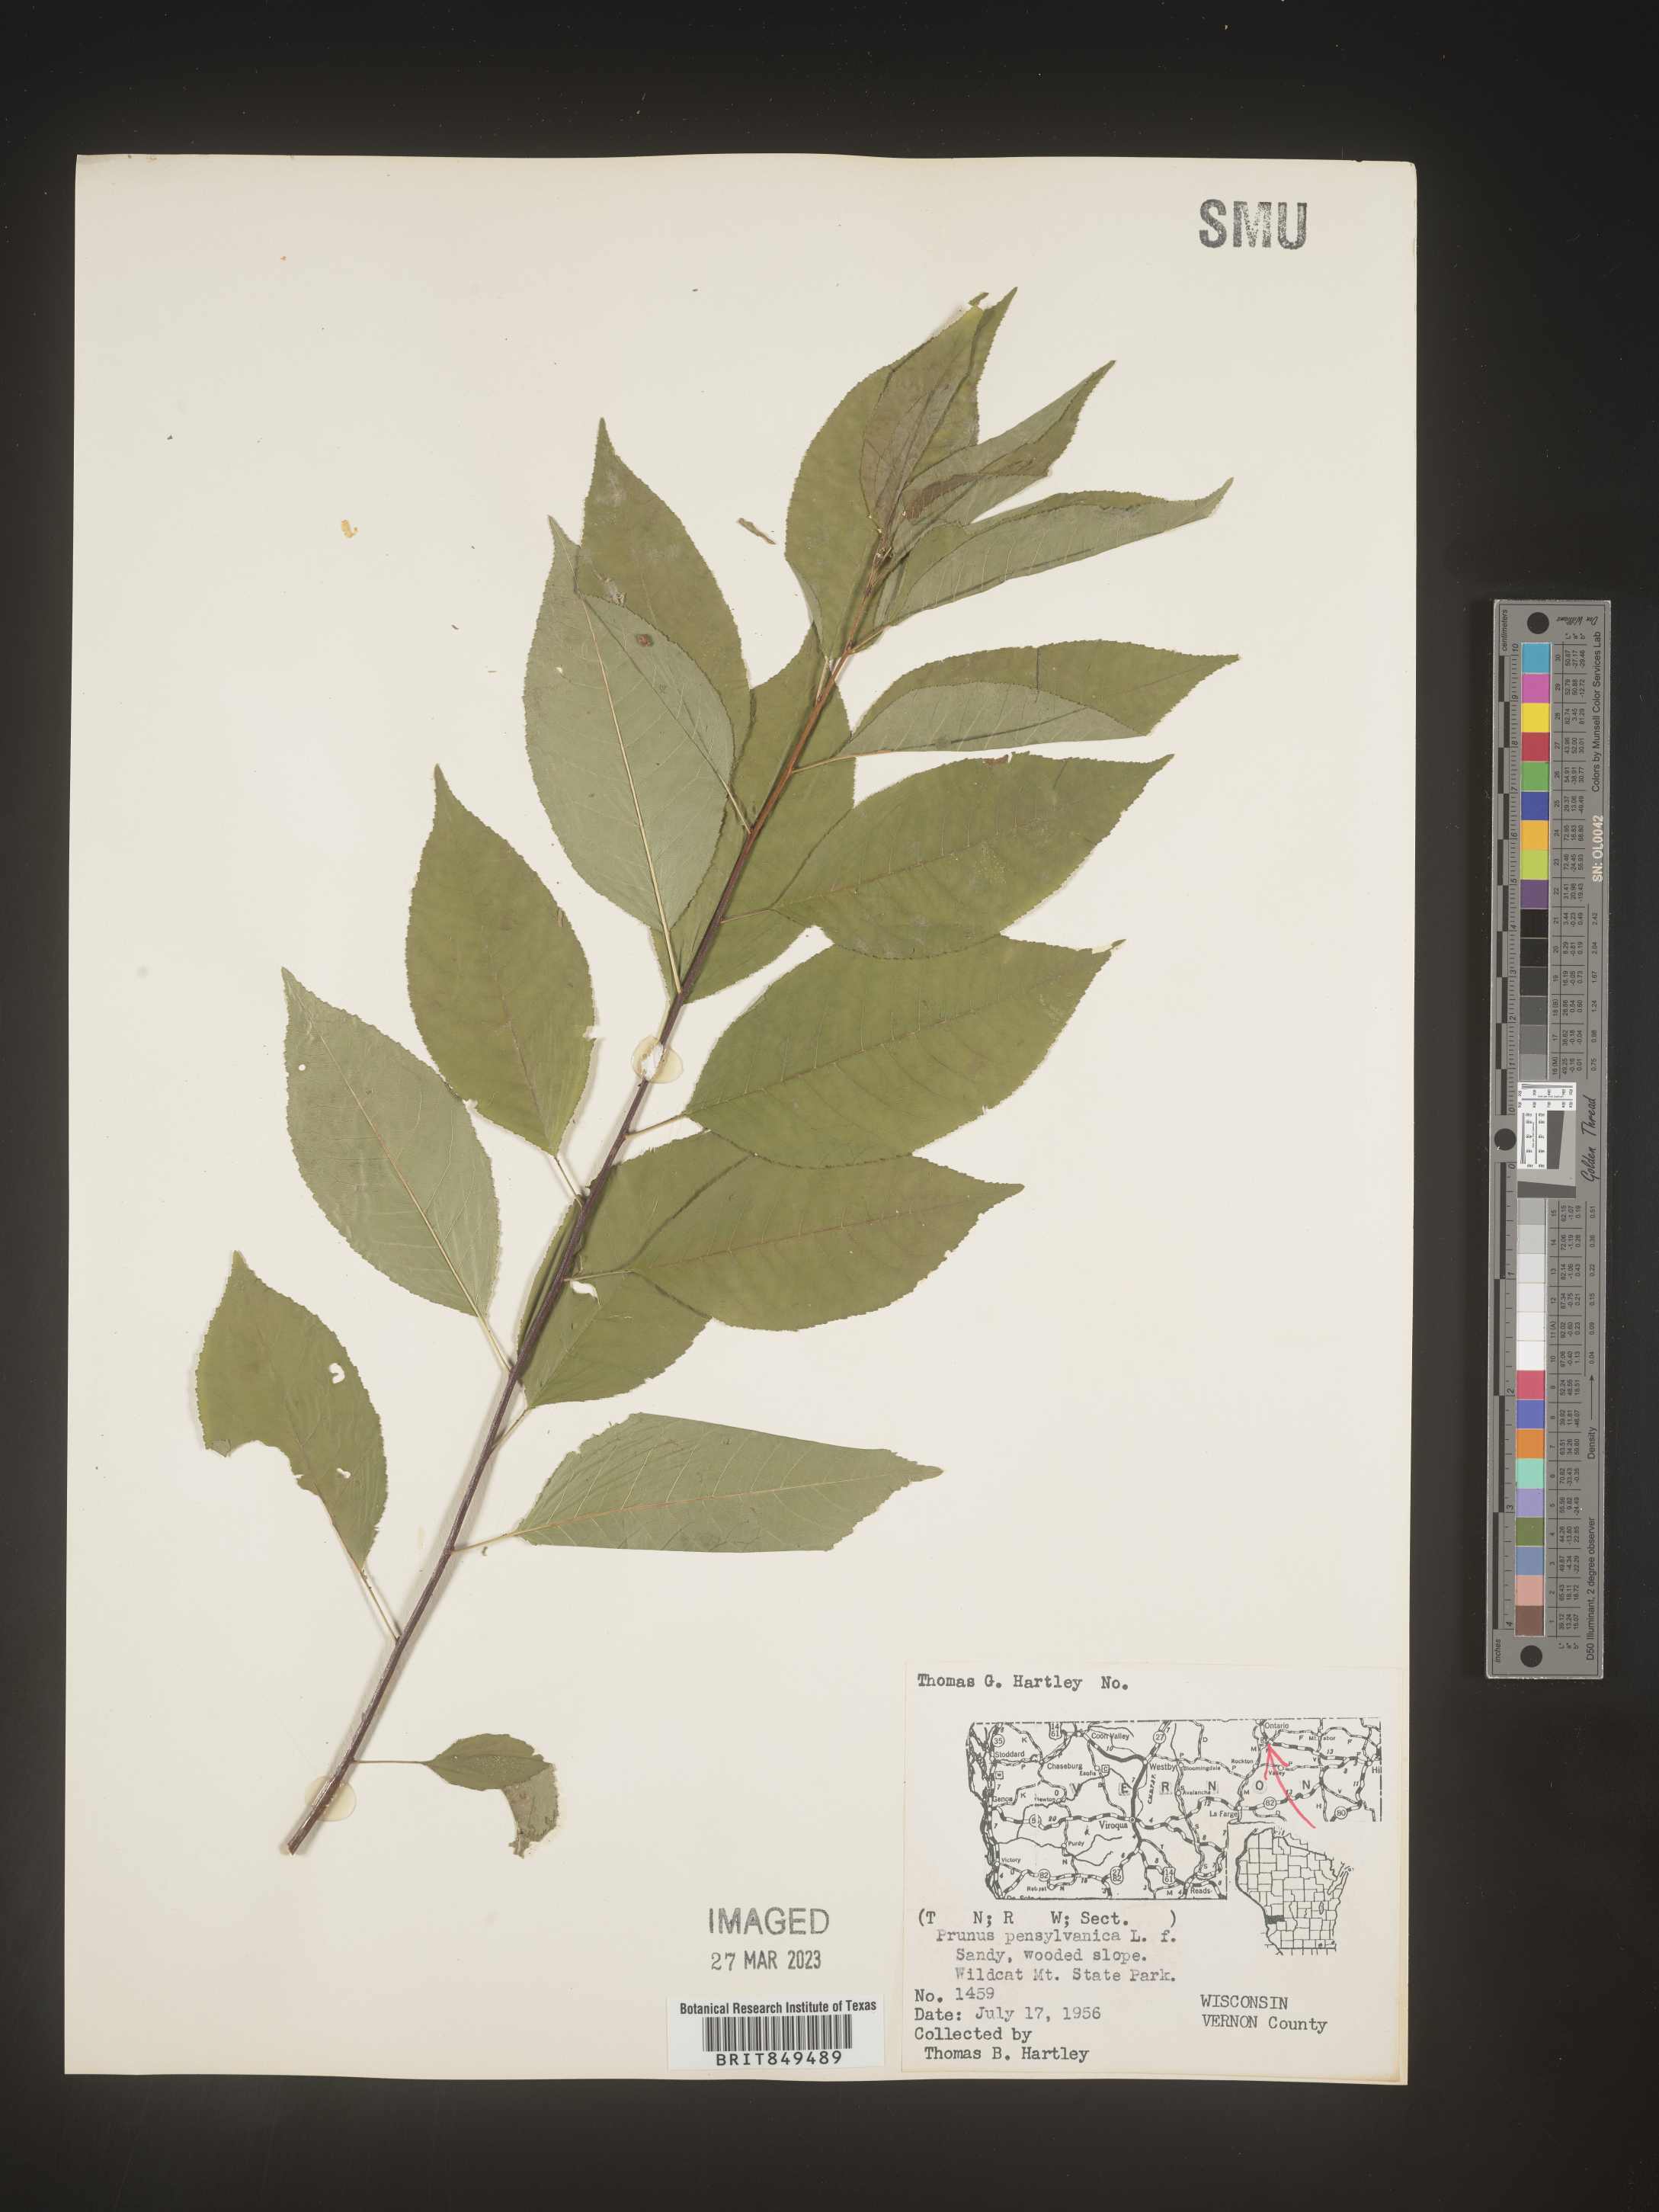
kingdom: Plantae
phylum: Tracheophyta
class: Magnoliopsida
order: Rosales
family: Rosaceae
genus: Prunus
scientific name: Prunus pensylvanica
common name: Pin cherry
